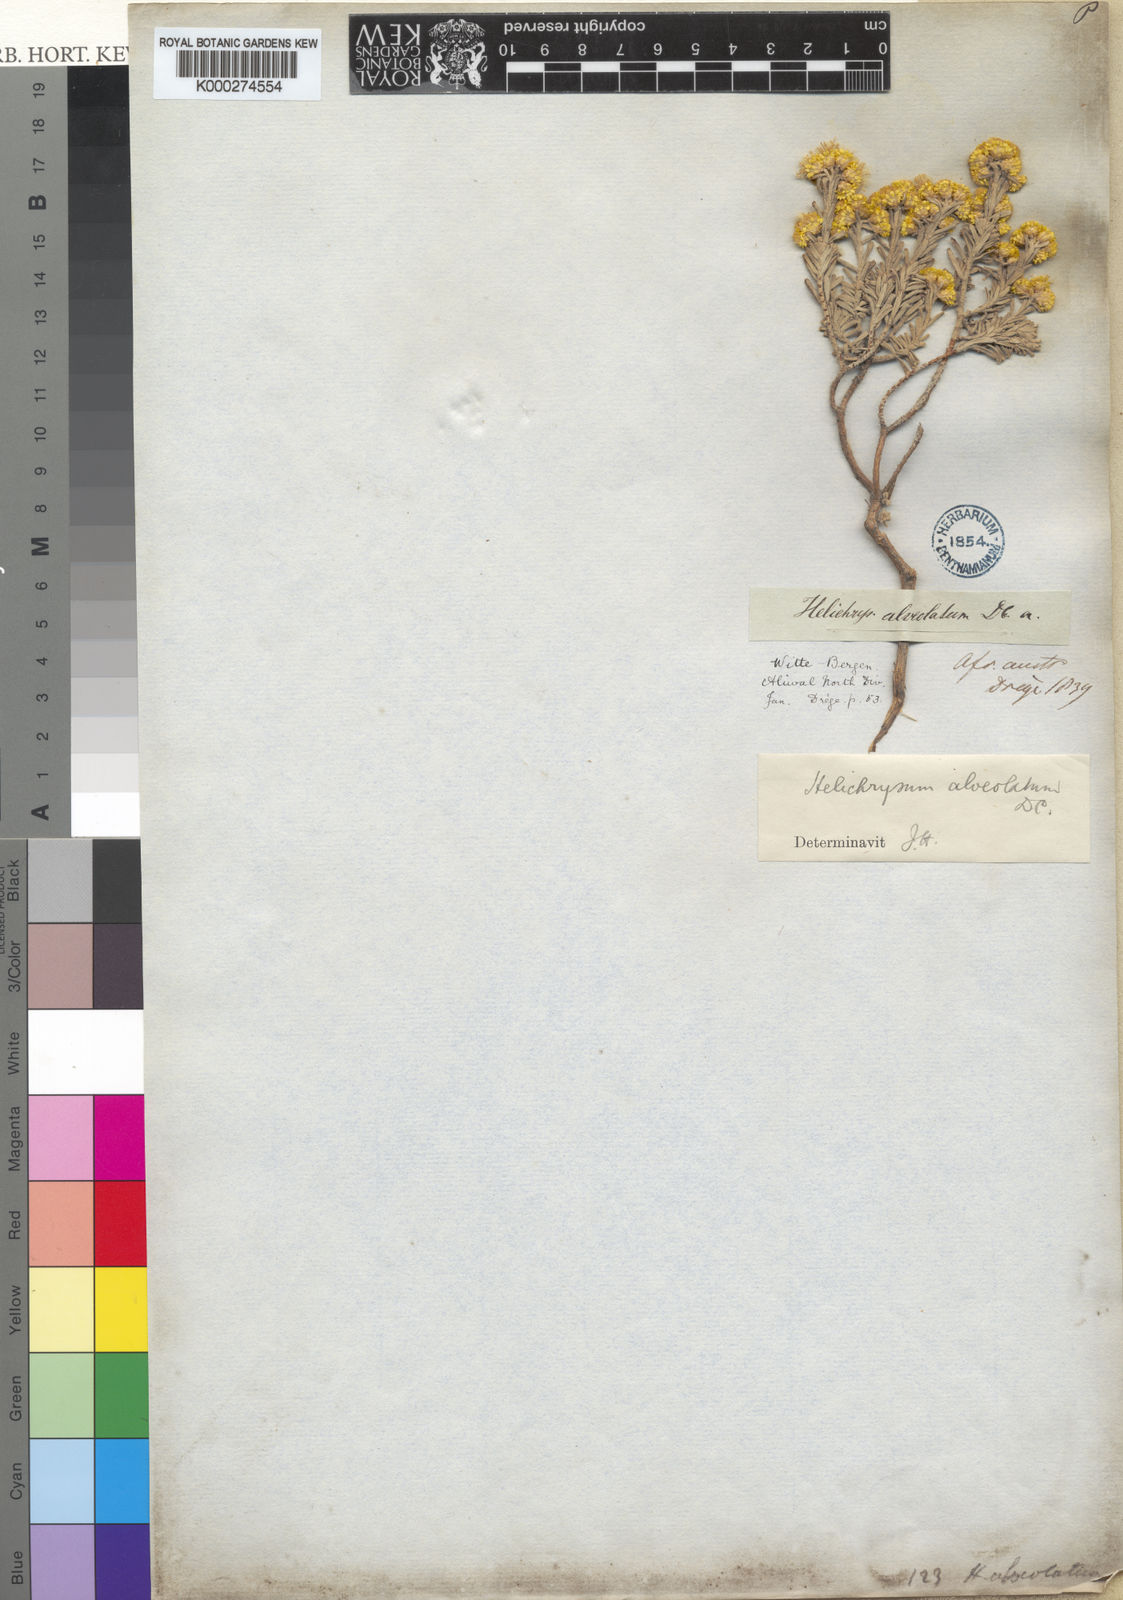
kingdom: Plantae
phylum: Tracheophyta
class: Magnoliopsida
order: Asterales
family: Asteraceae
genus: Helichrysum
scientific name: Helichrysum trilineatum
